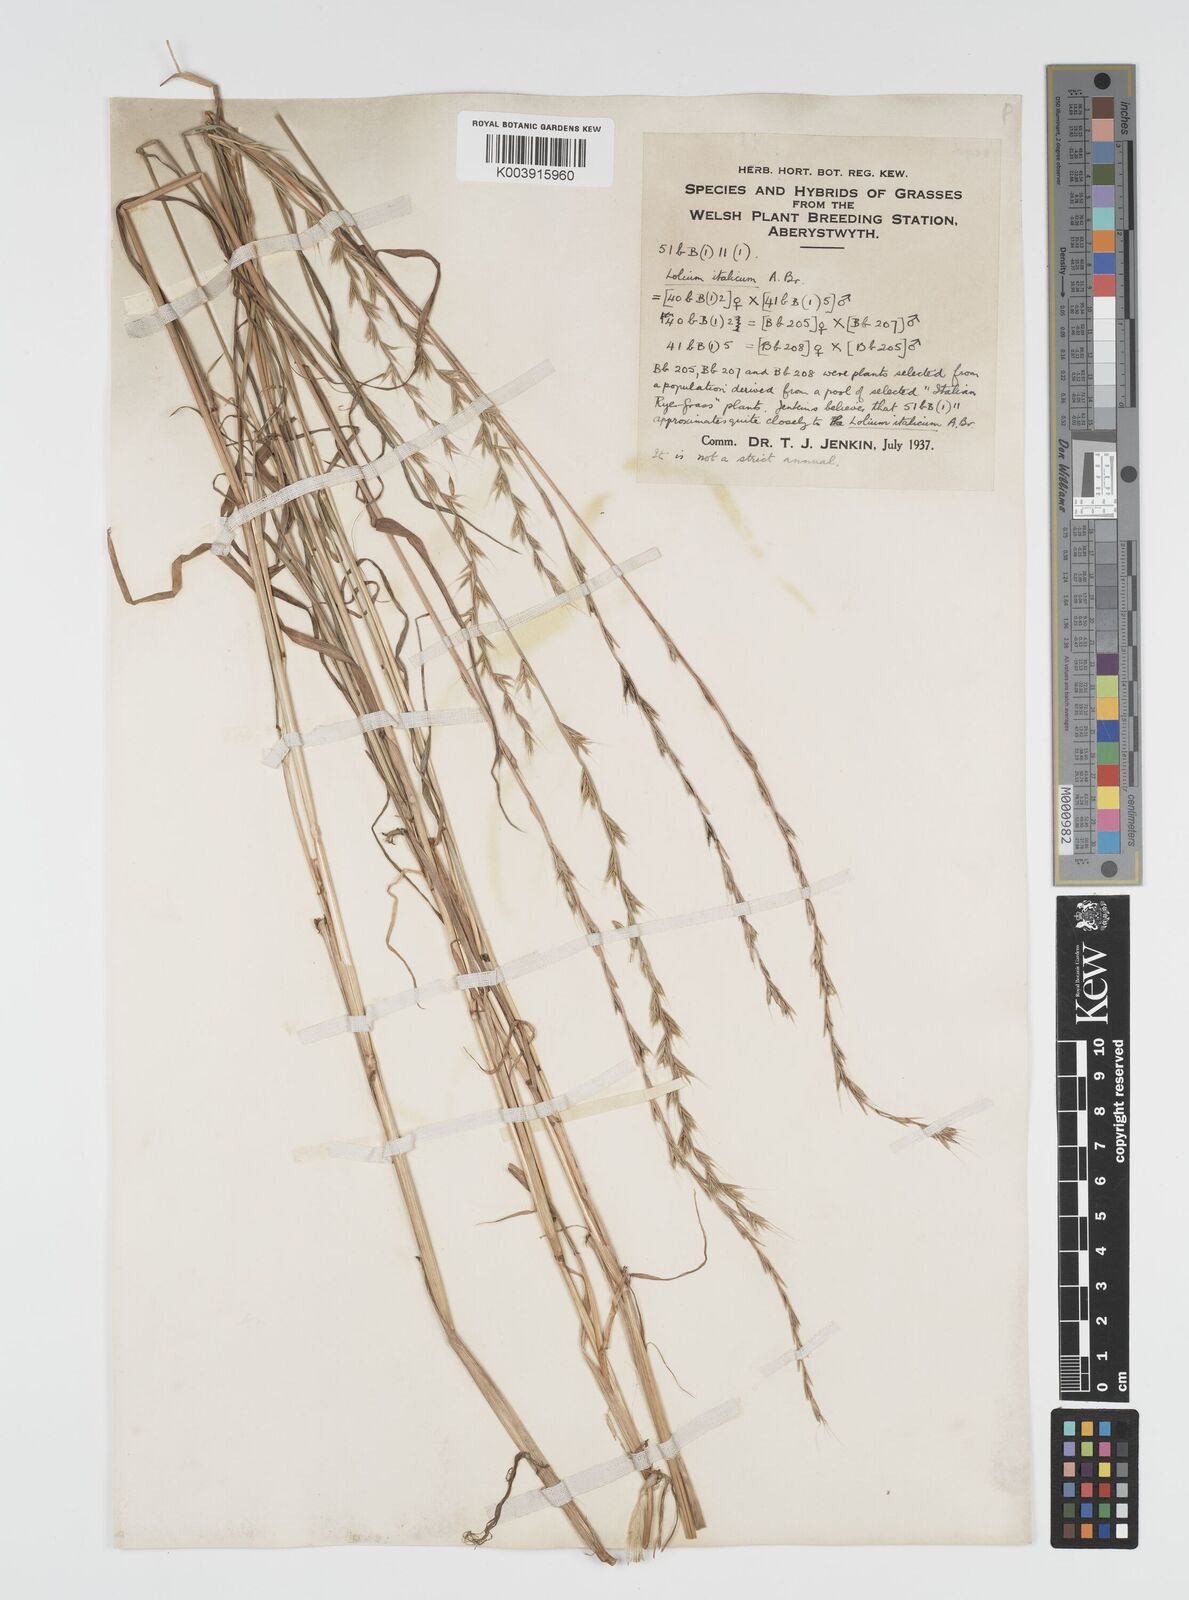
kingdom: Plantae
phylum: Tracheophyta
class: Liliopsida
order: Poales
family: Poaceae
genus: Lolium
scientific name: Lolium multiflorum
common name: Annual ryegrass
